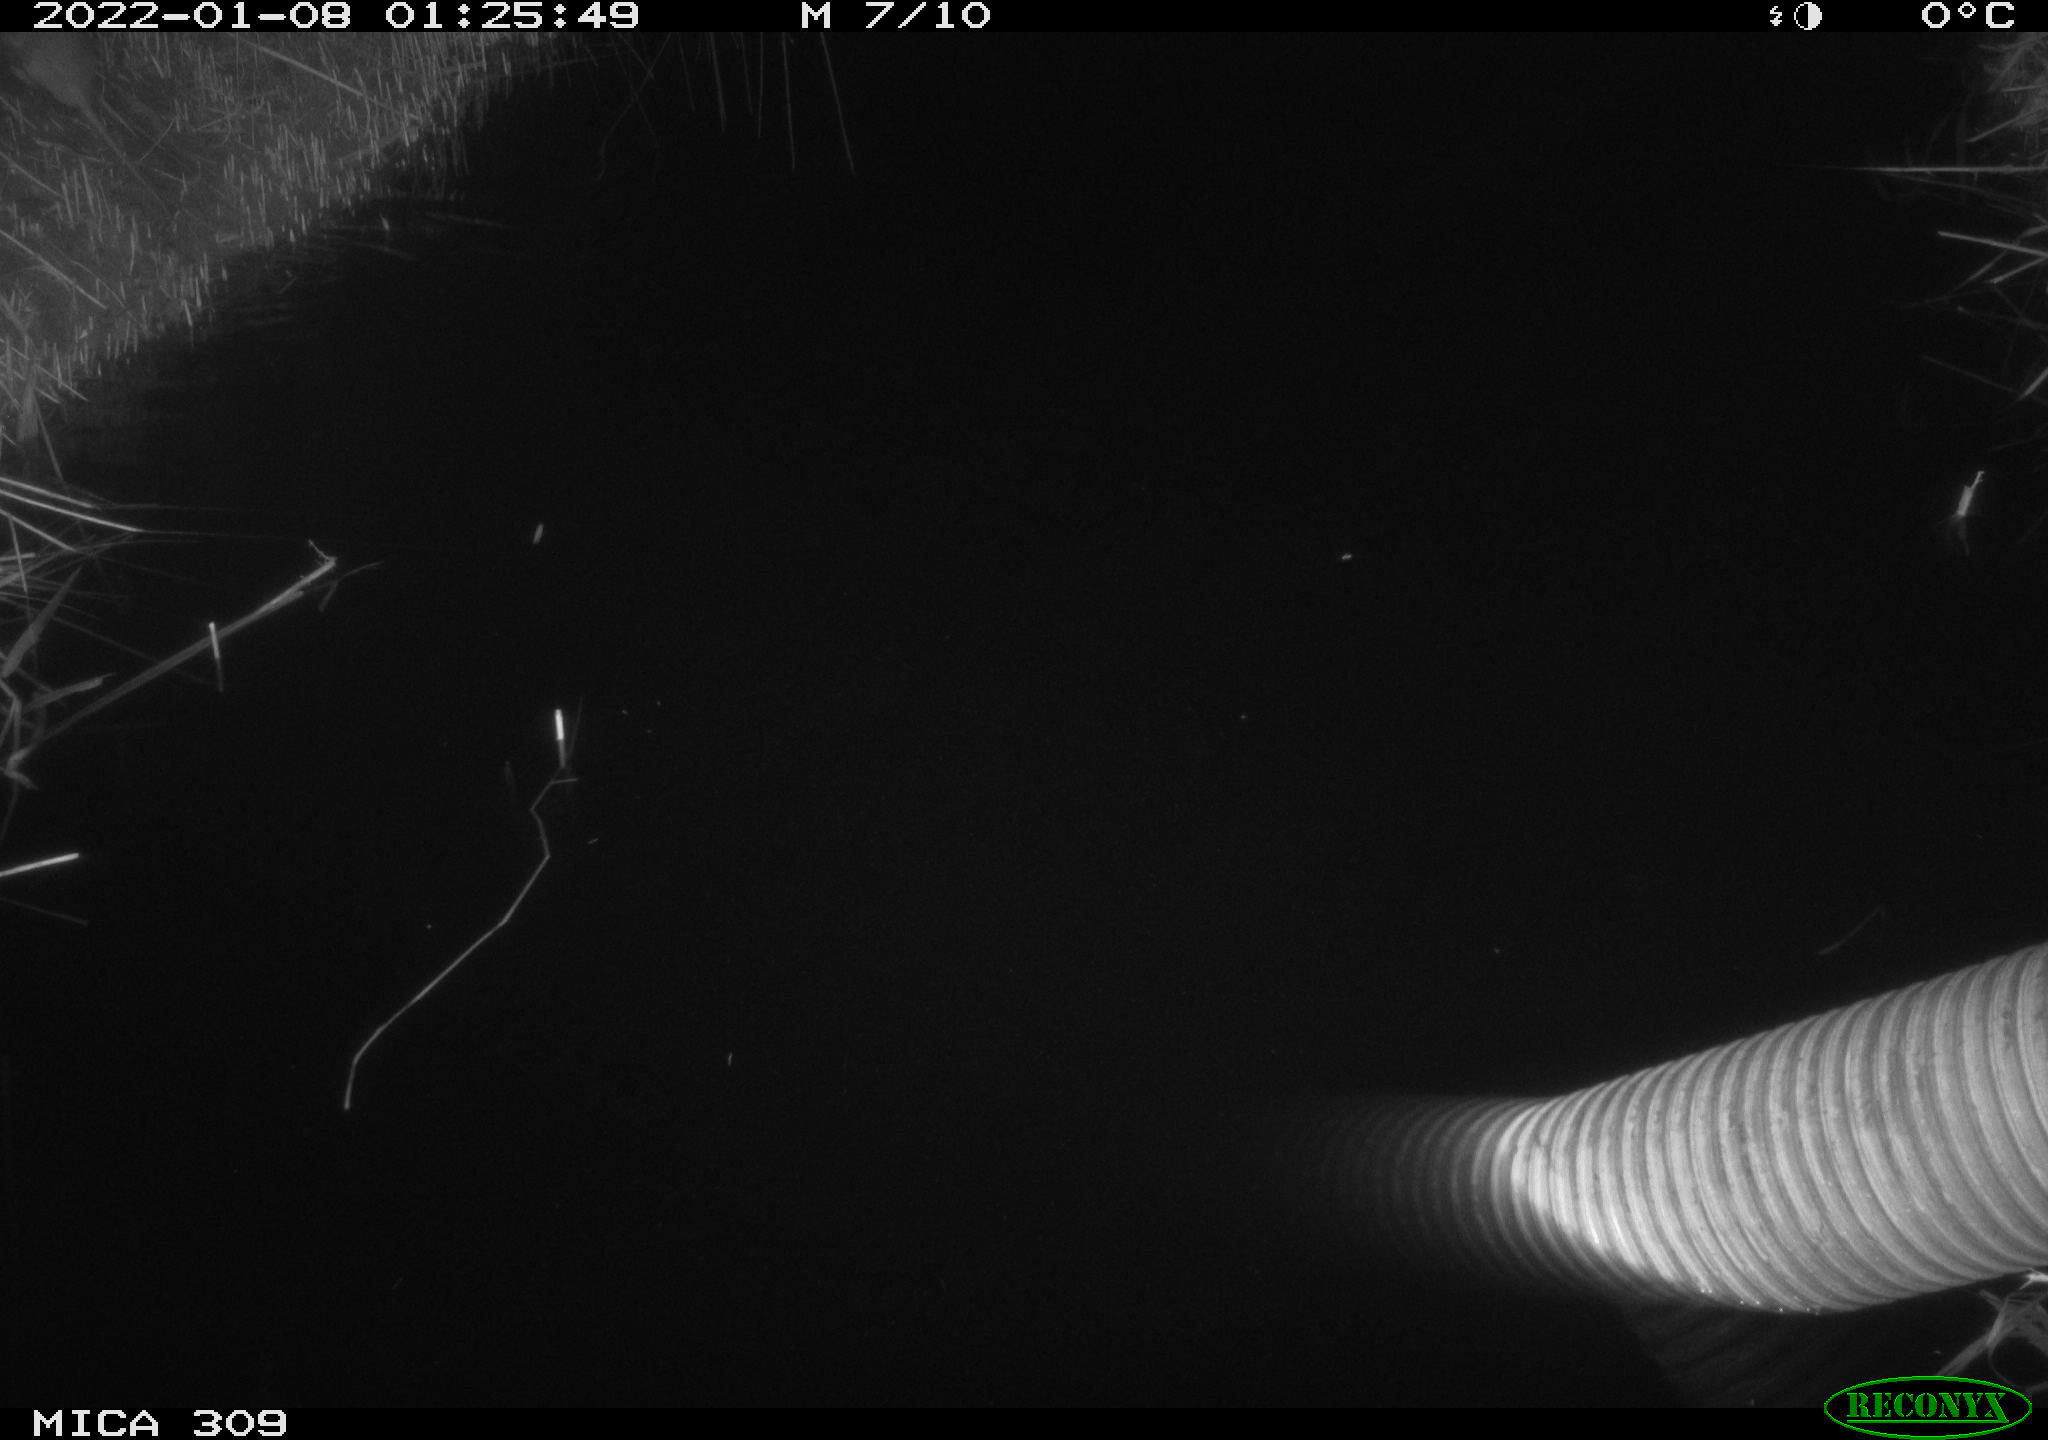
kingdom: Animalia
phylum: Chordata
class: Mammalia
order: Rodentia
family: Muridae
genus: Rattus
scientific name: Rattus norvegicus
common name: Brown rat
